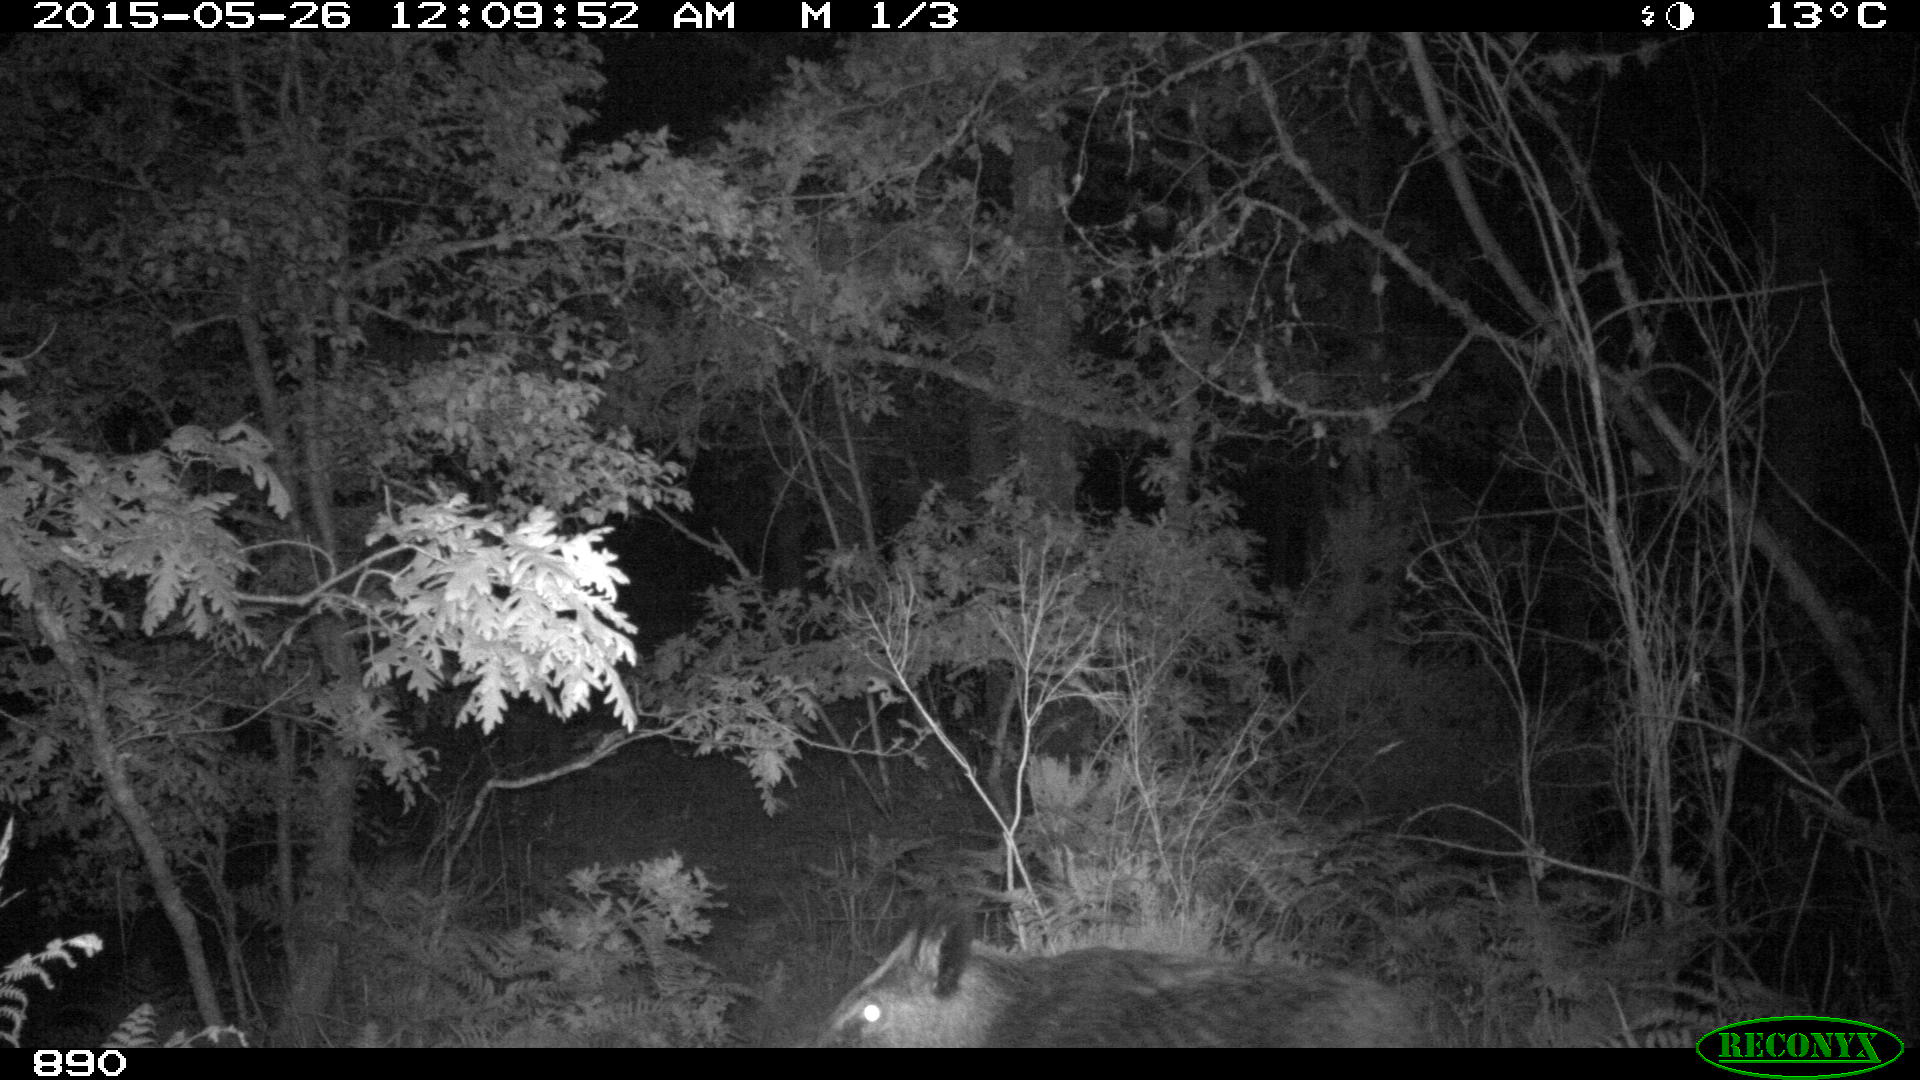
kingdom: Animalia
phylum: Chordata
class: Mammalia
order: Artiodactyla
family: Suidae
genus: Sus
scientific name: Sus scrofa
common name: Wild boar
